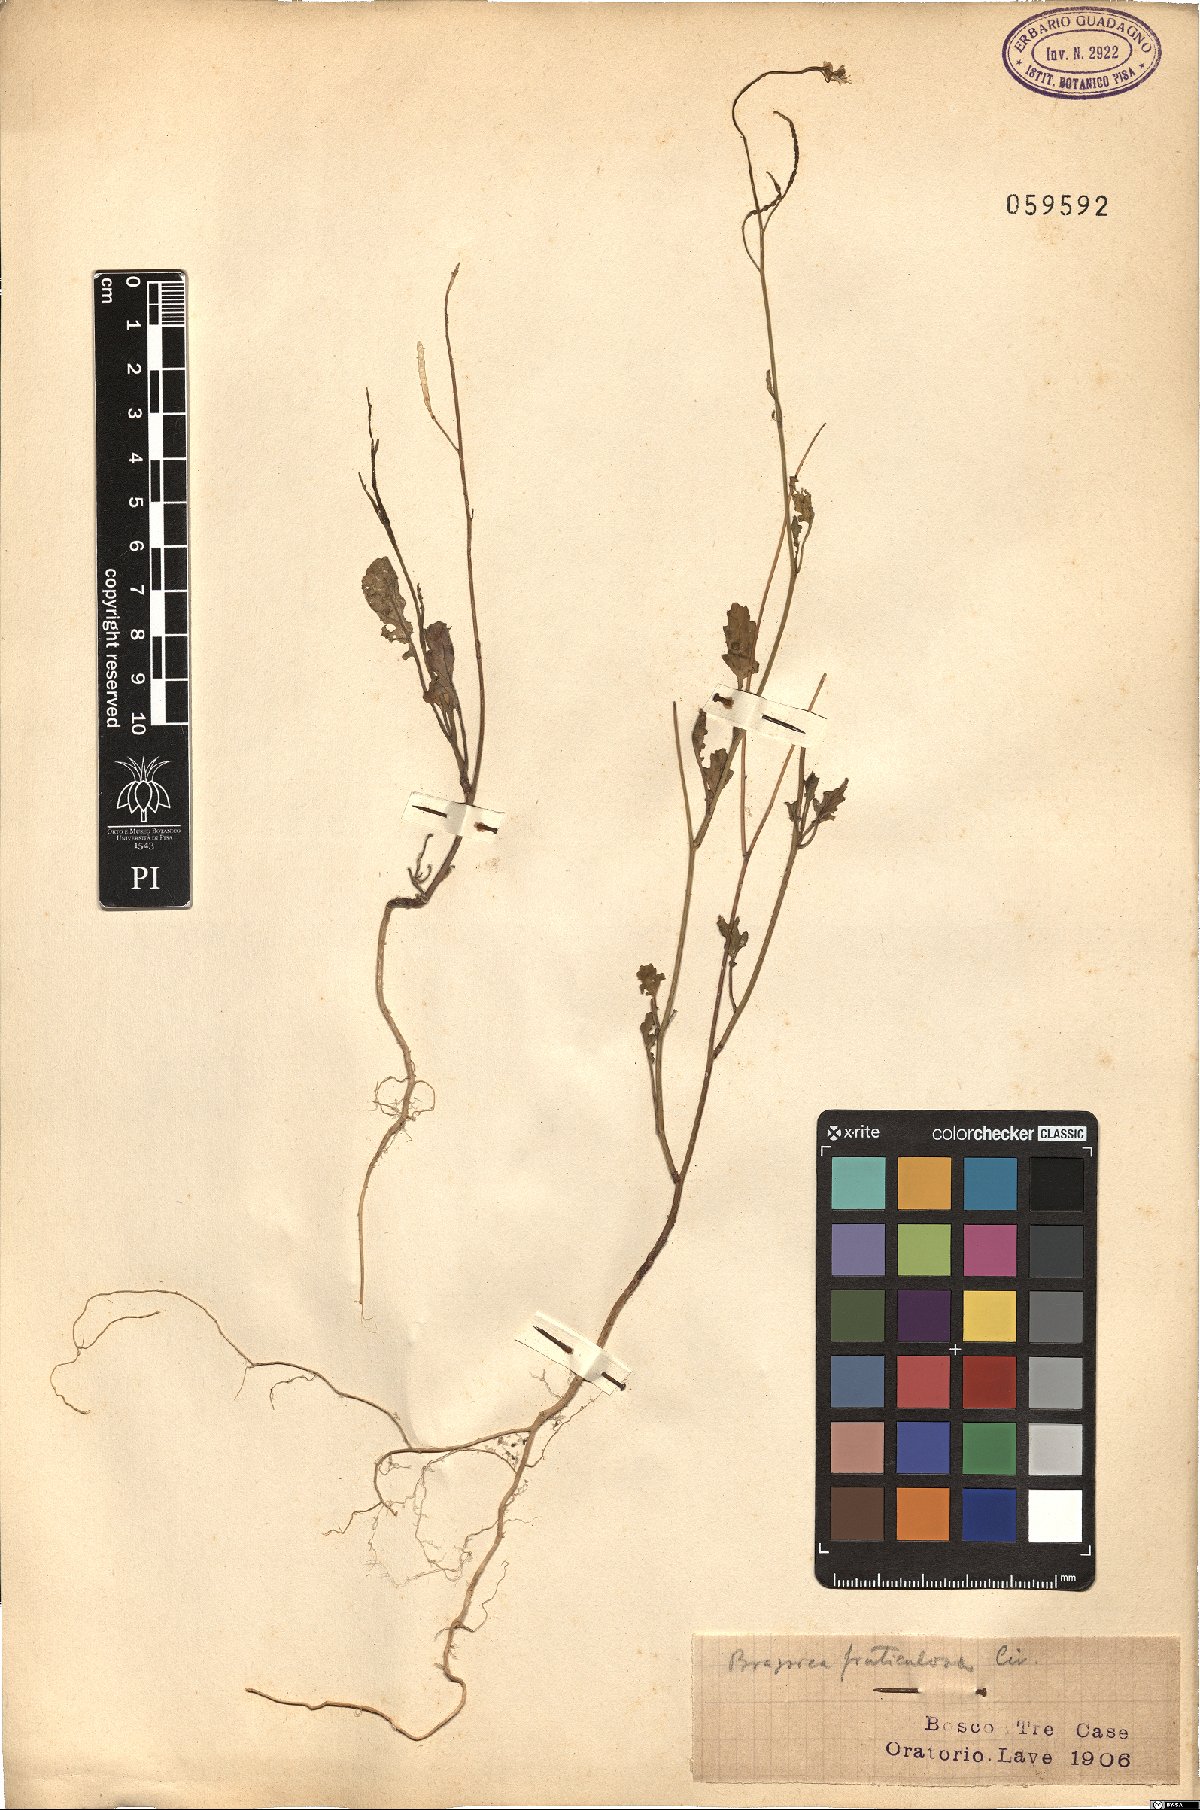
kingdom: Plantae
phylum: Tracheophyta
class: Magnoliopsida
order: Brassicales
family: Brassicaceae
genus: Brassica
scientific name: Brassica fruticulosa
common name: Twiggy turnip
